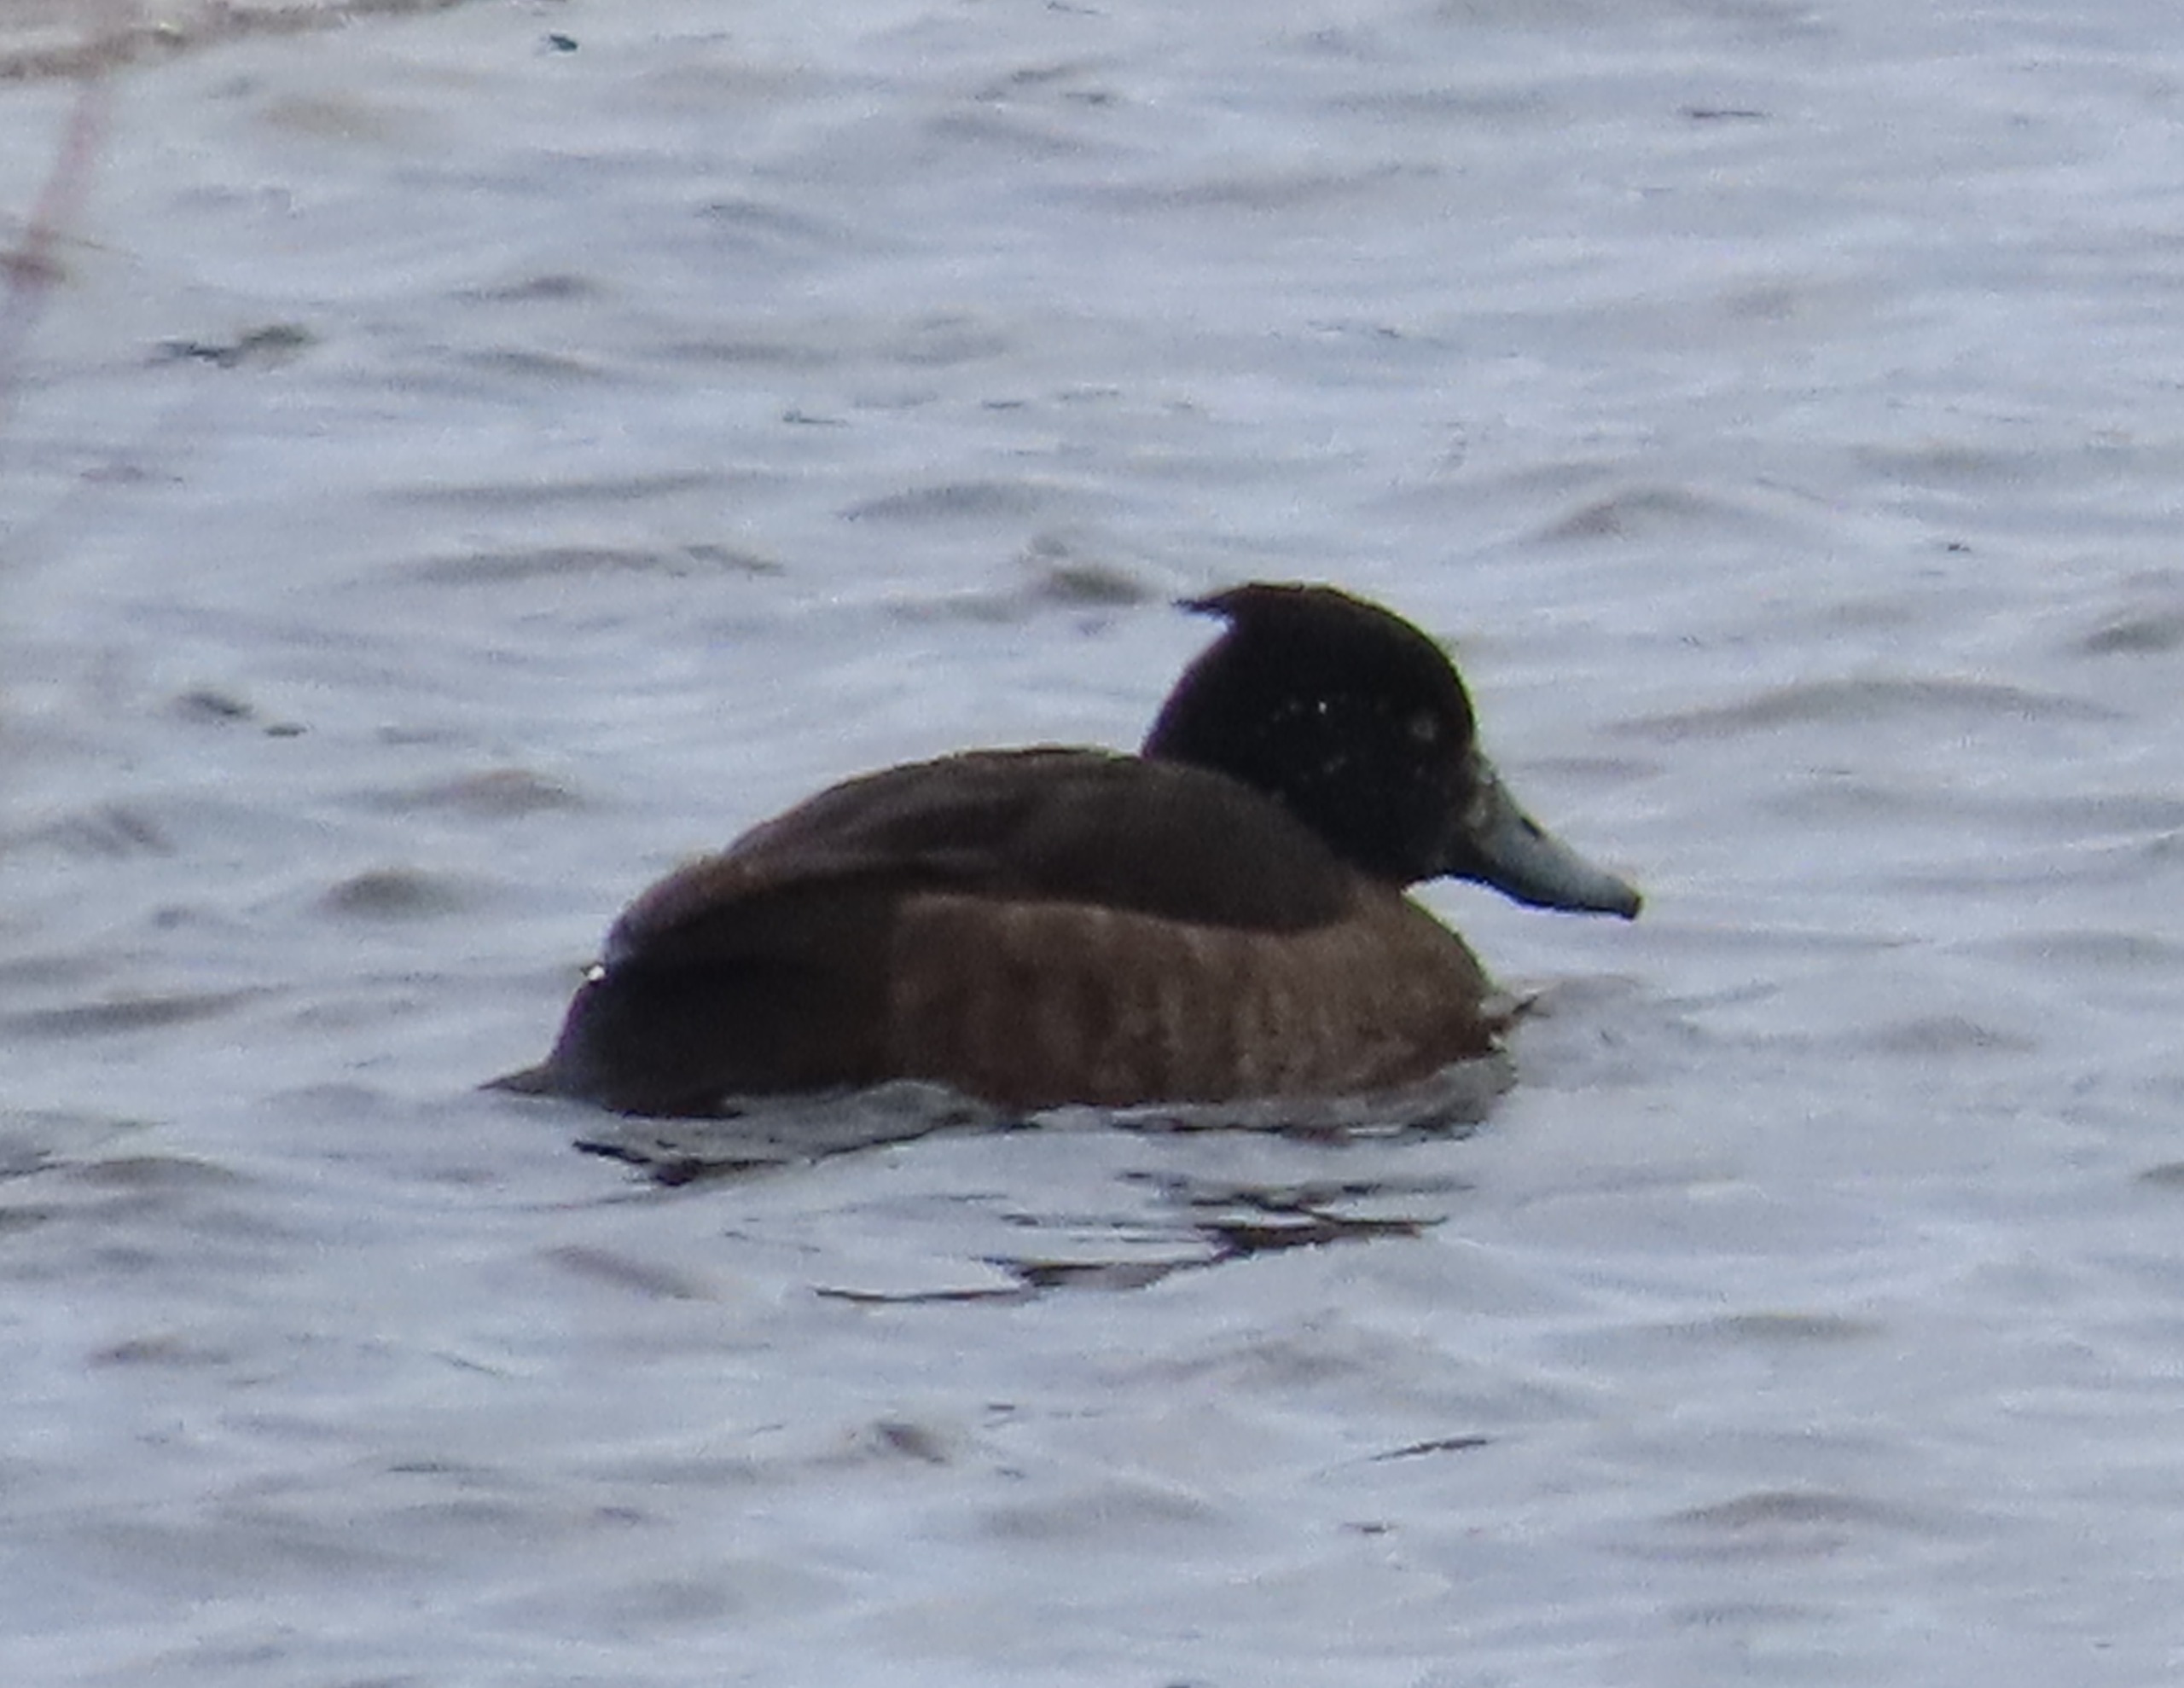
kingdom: Animalia
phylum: Chordata
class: Aves
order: Anseriformes
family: Anatidae
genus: Aythya
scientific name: Aythya fuligula
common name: Troldand
